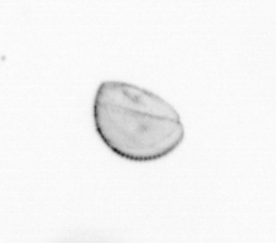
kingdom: Chromista
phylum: Ochrophyta
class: Bacillariophyceae
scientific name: Bacillariophyceae
